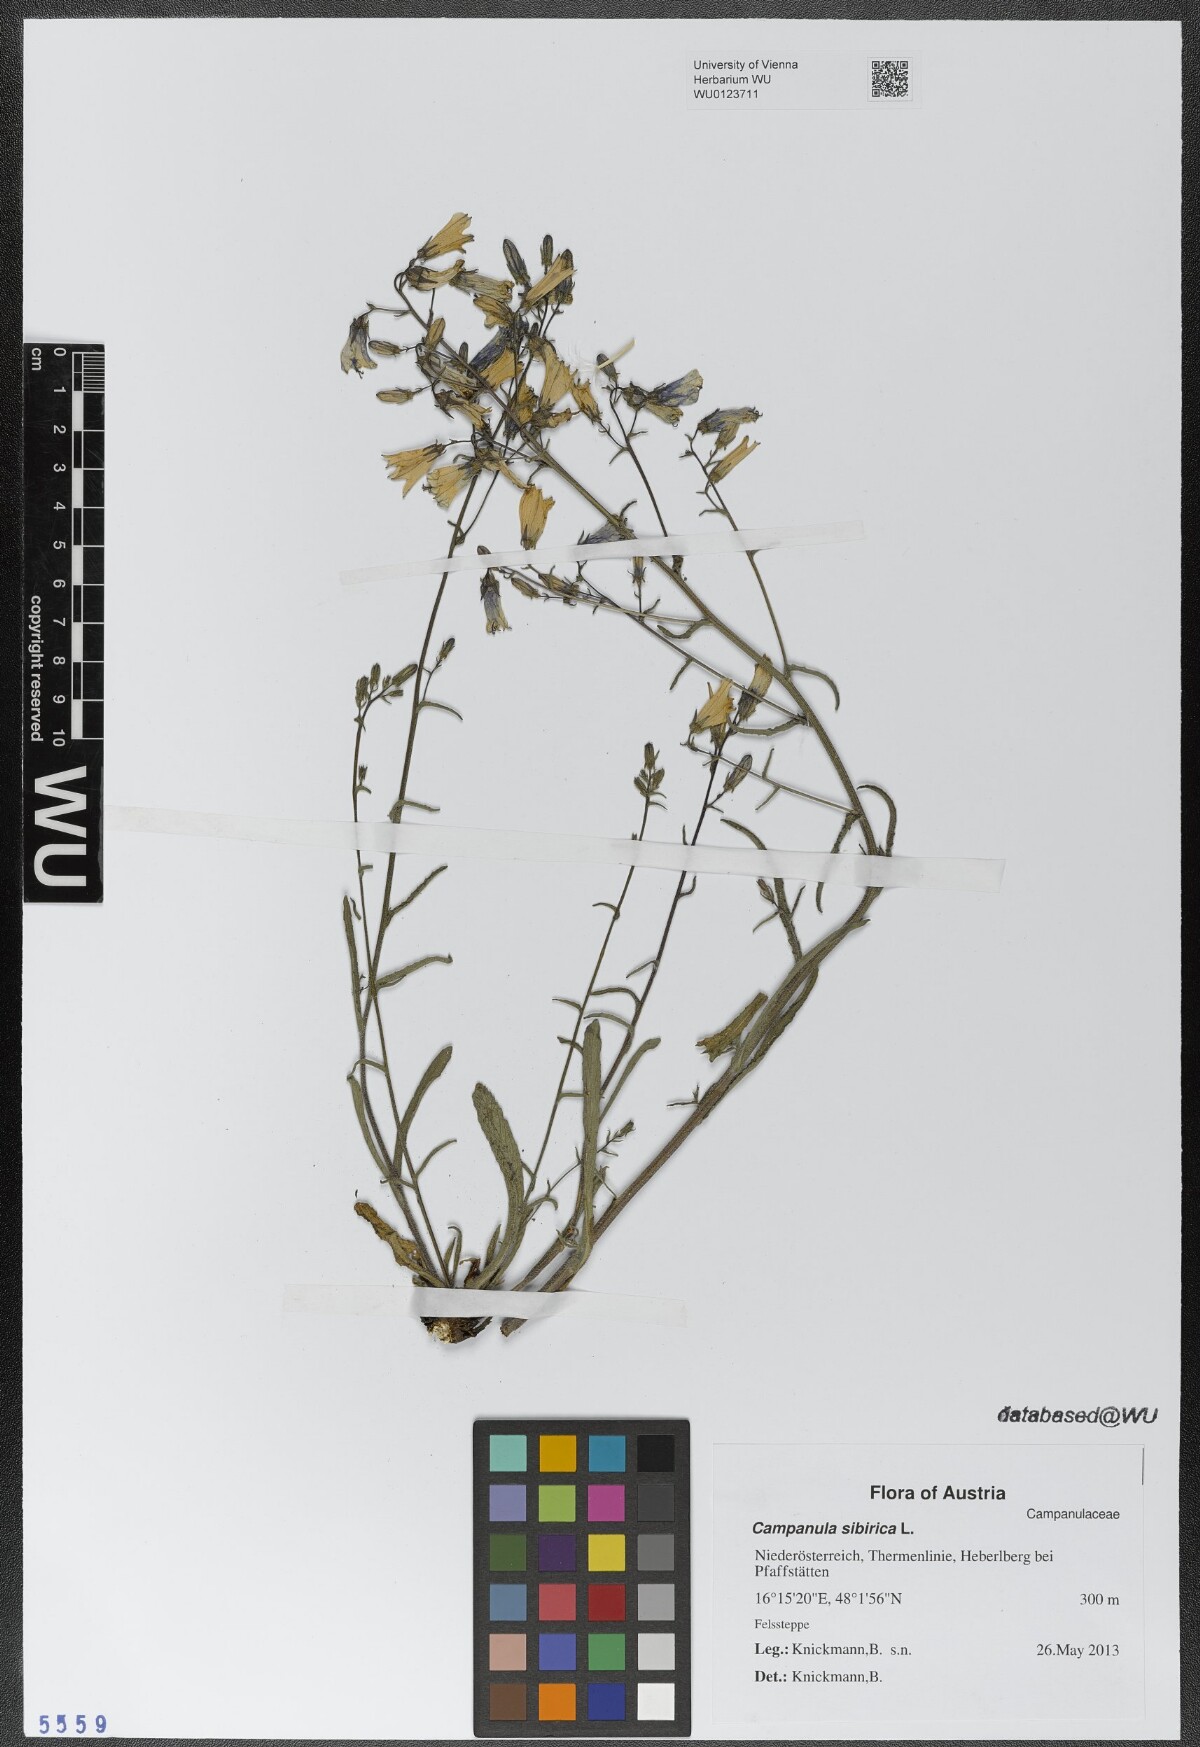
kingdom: Plantae
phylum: Tracheophyta
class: Magnoliopsida
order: Asterales
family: Campanulaceae
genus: Campanula
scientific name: Campanula sibirica
